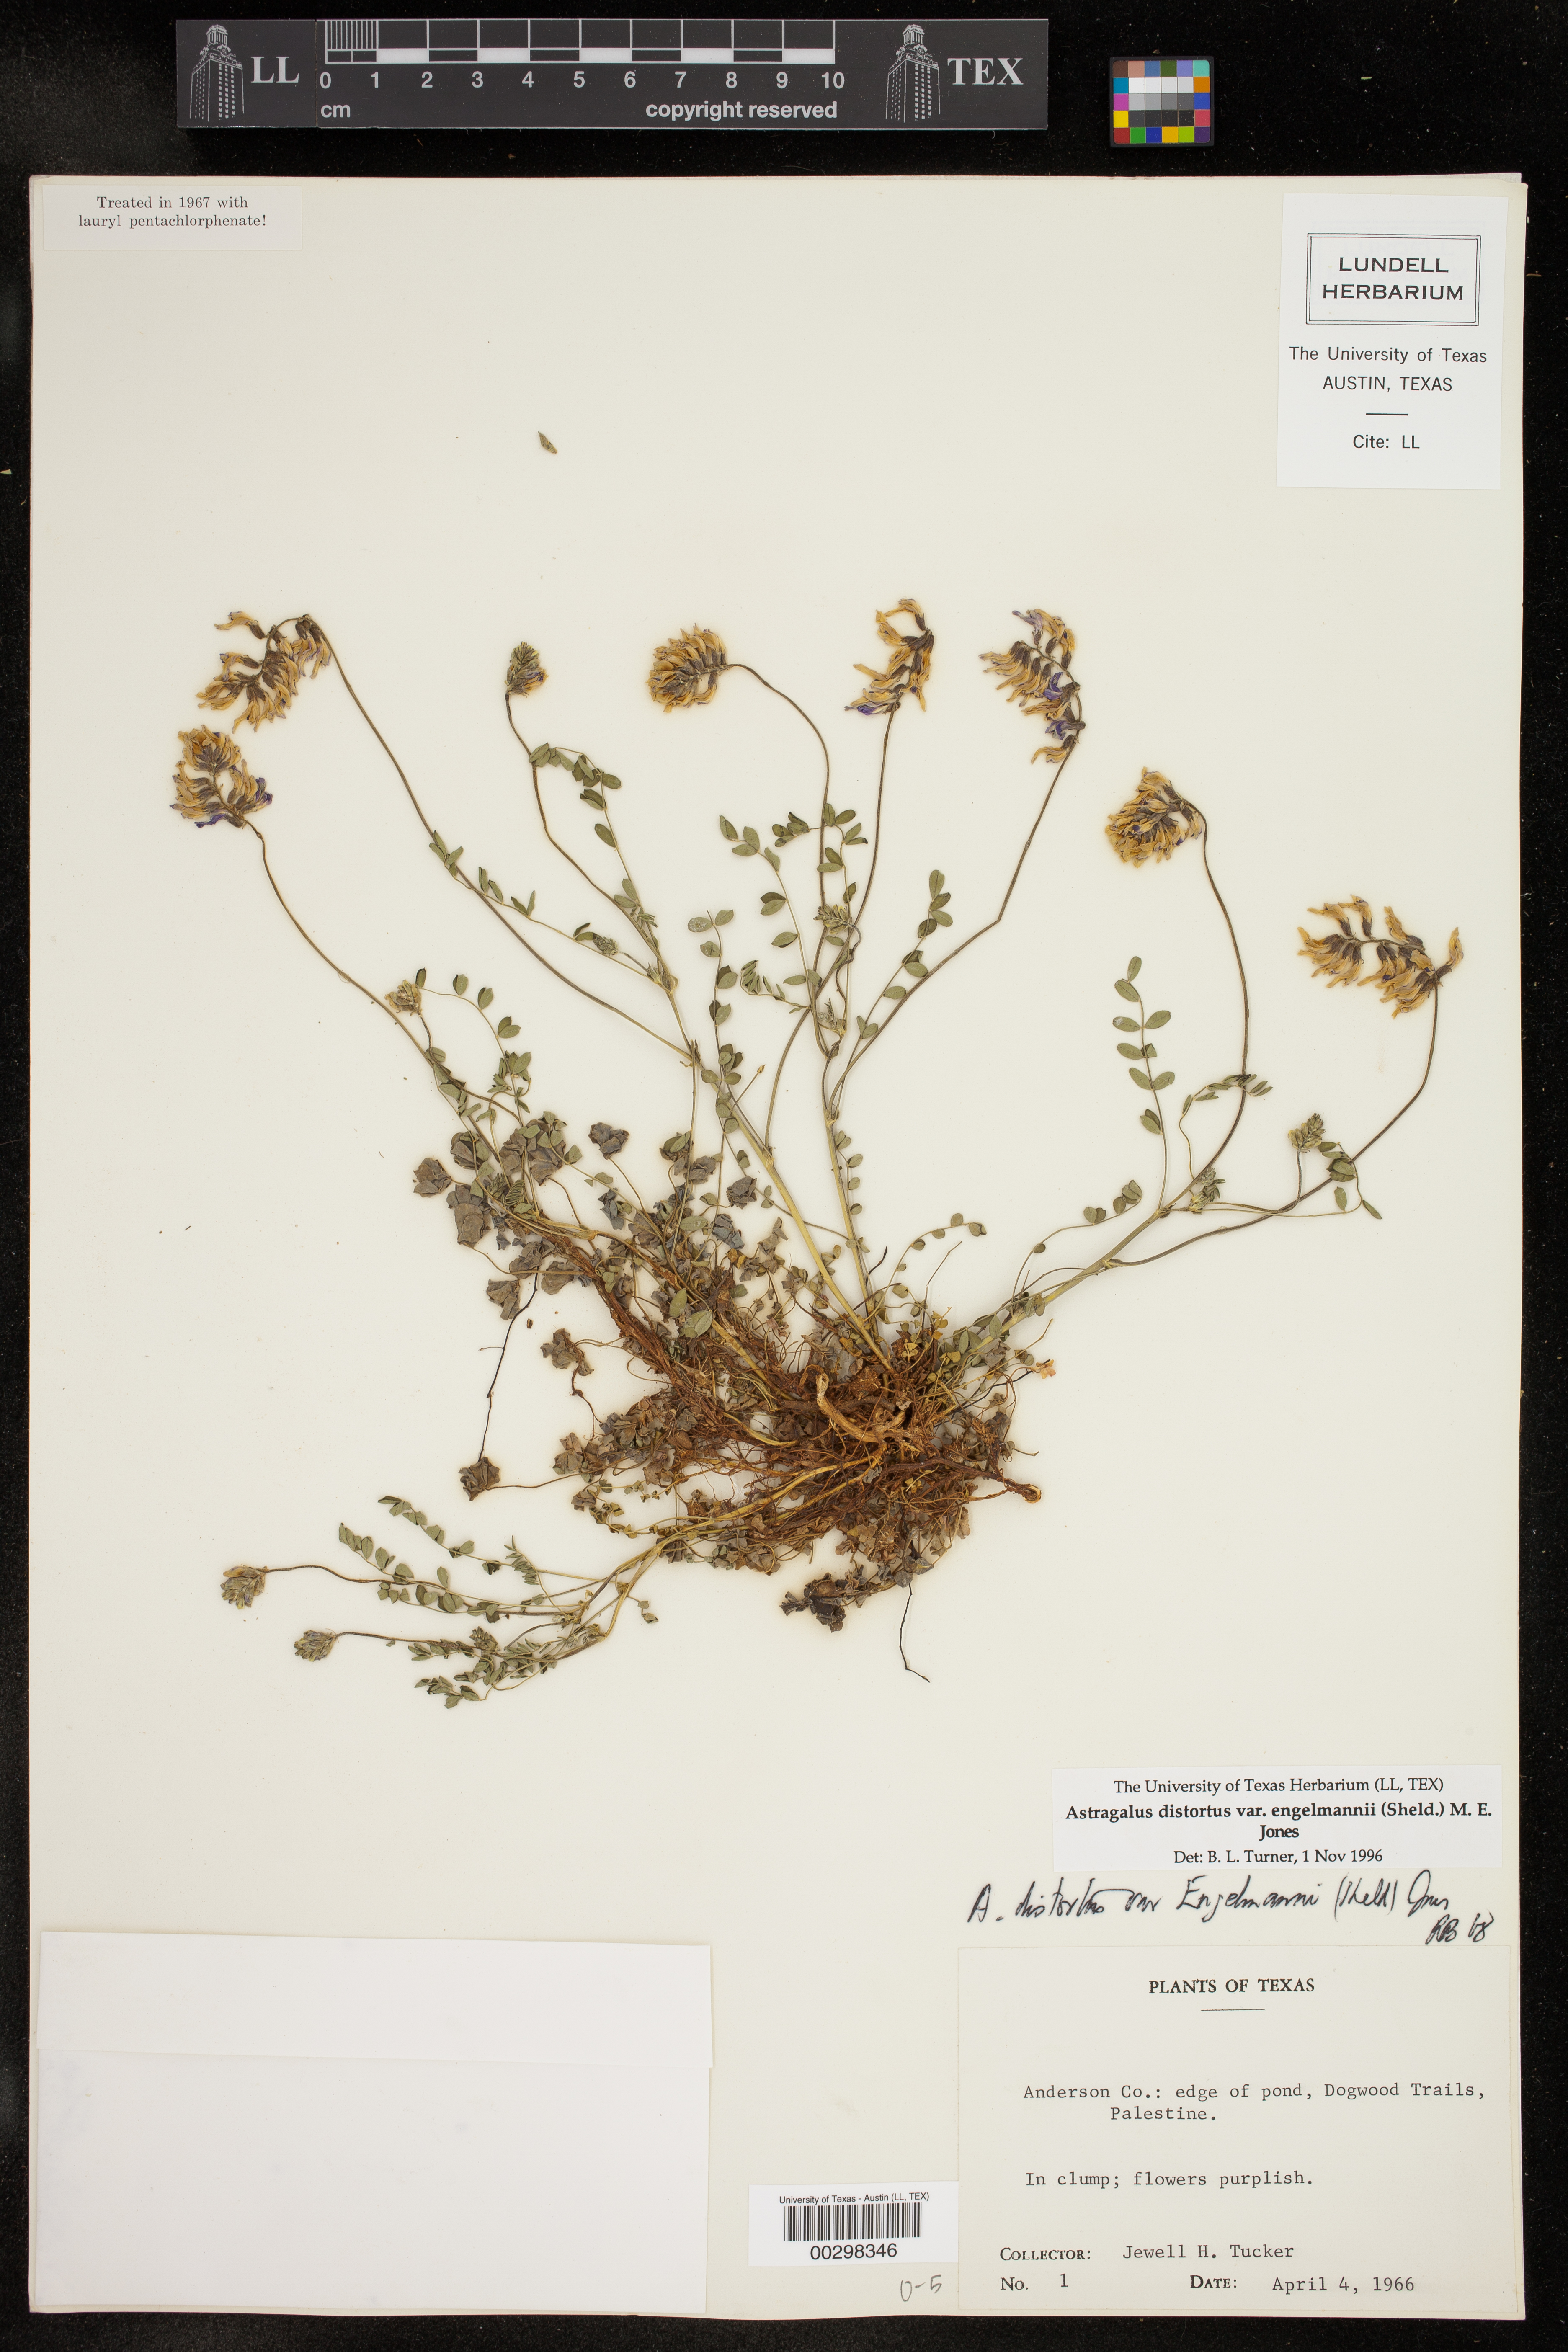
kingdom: Plantae
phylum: Tracheophyta
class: Magnoliopsida
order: Fabales
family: Fabaceae
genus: Astragalus
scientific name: Astragalus distortus
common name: Ozark milk-vetch
